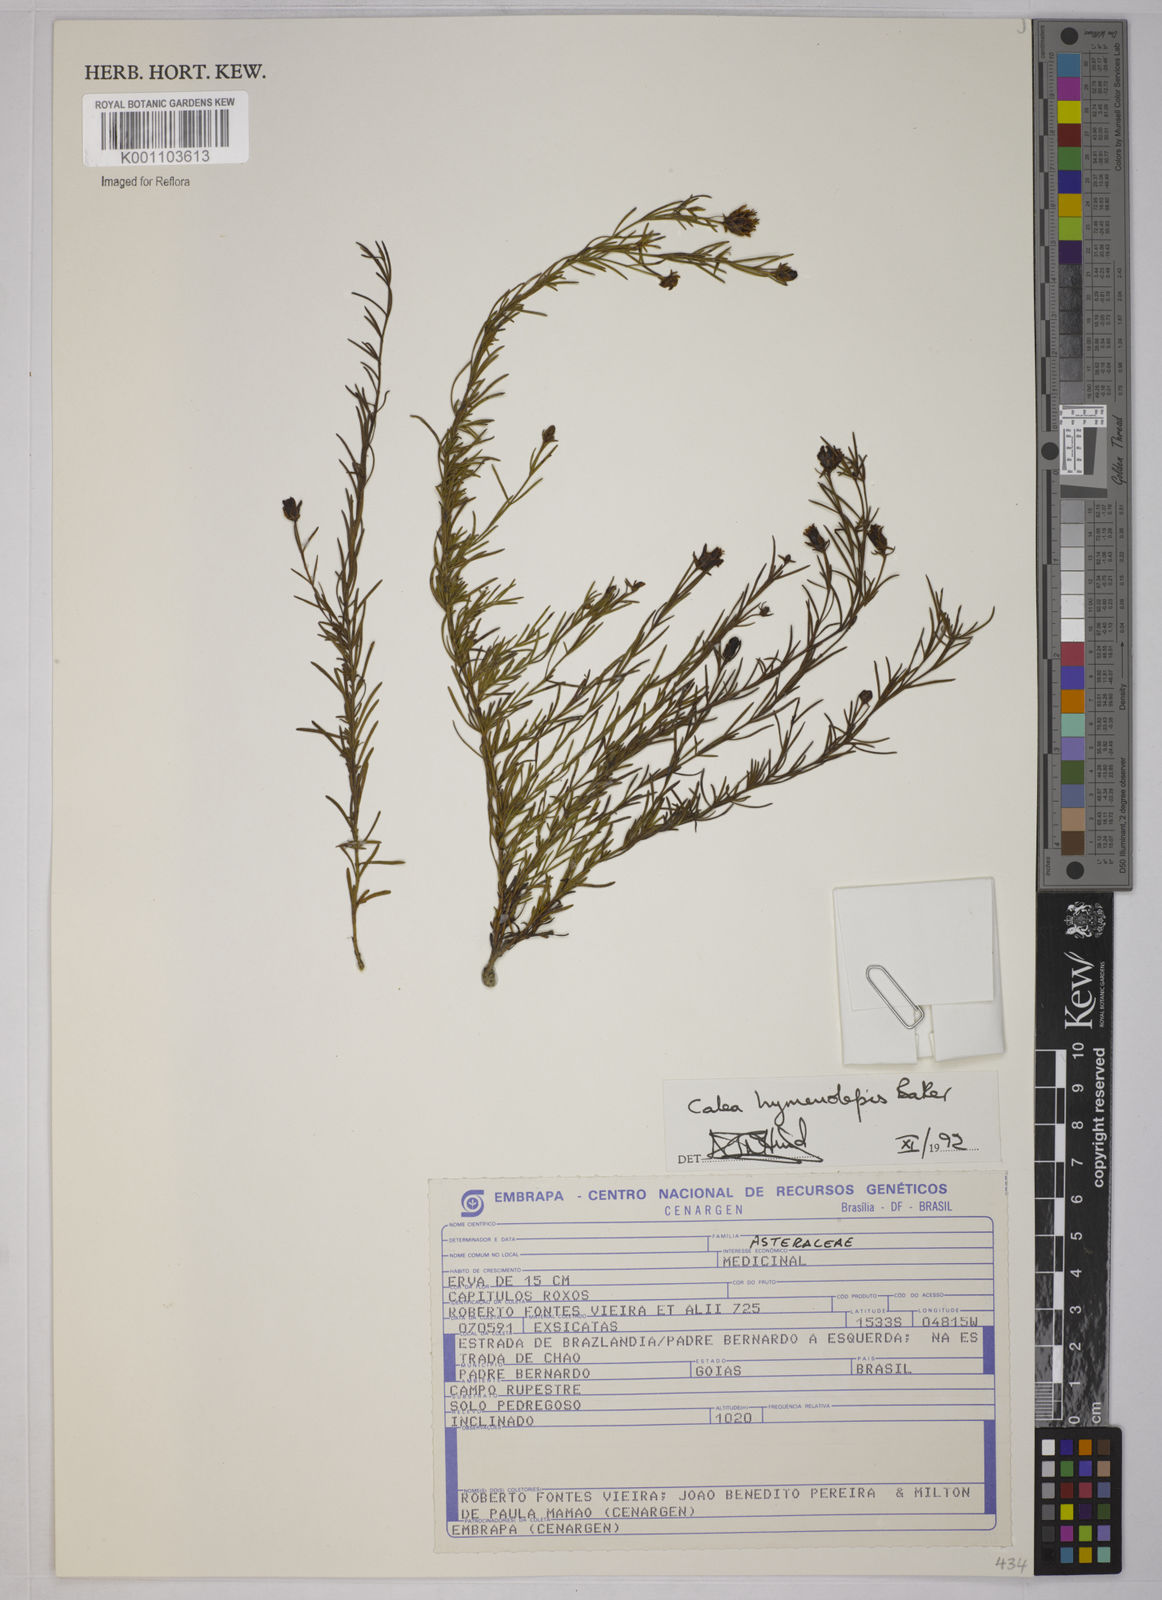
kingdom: Plantae
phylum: Tracheophyta
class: Magnoliopsida
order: Asterales
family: Asteraceae
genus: Calea
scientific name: Calea hymenolepis
